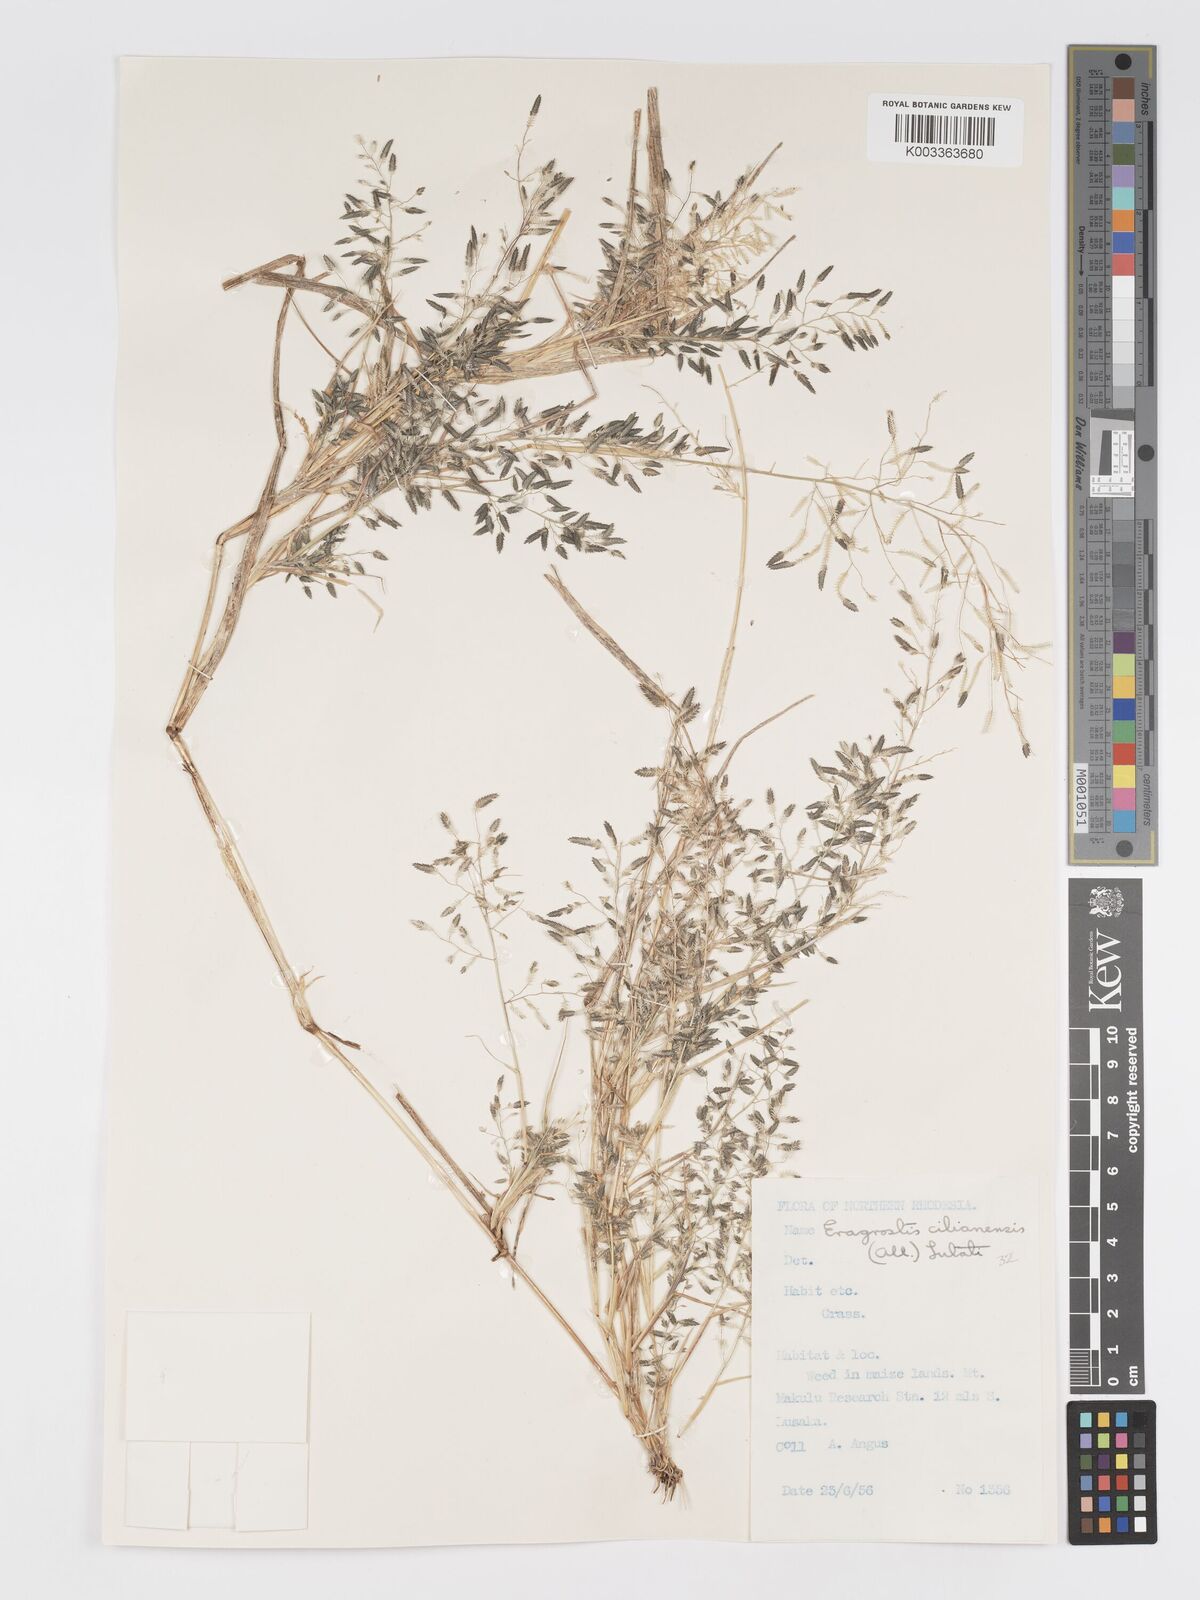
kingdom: Plantae
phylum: Tracheophyta
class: Liliopsida
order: Poales
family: Poaceae
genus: Eragrostis
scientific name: Eragrostis cilianensis
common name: Stinkgrass
